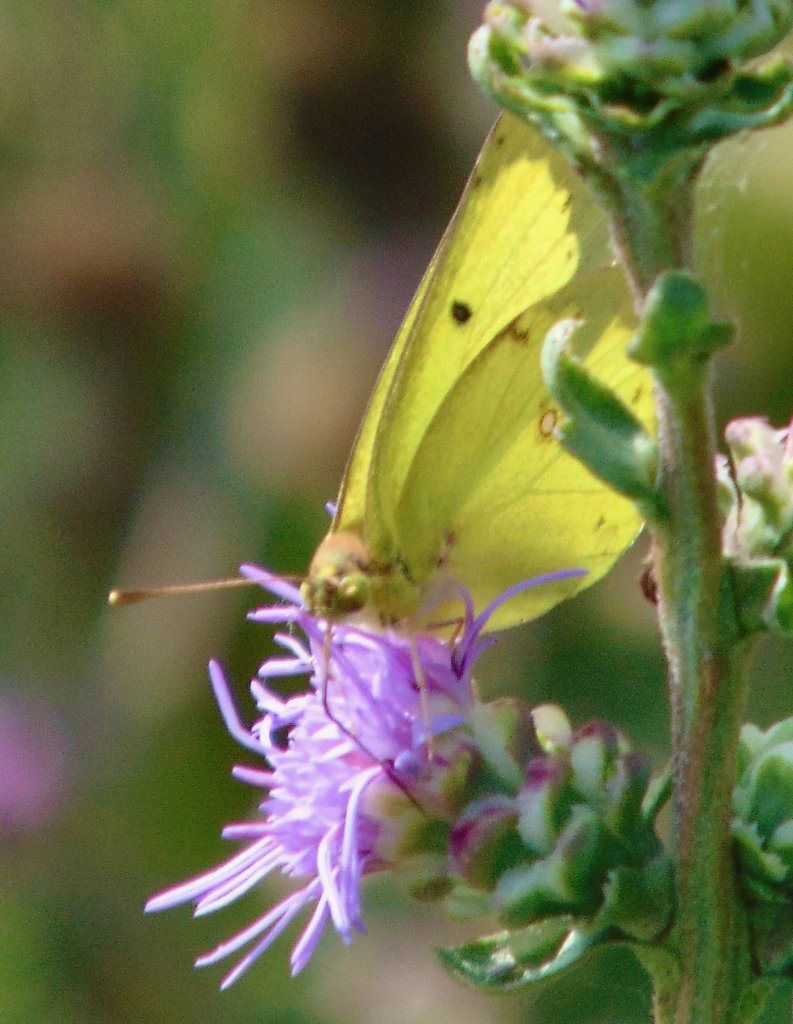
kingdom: Animalia
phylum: Arthropoda
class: Insecta
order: Lepidoptera
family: Pieridae
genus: Colias
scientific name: Colias philodice
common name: Clouded Sulphur
